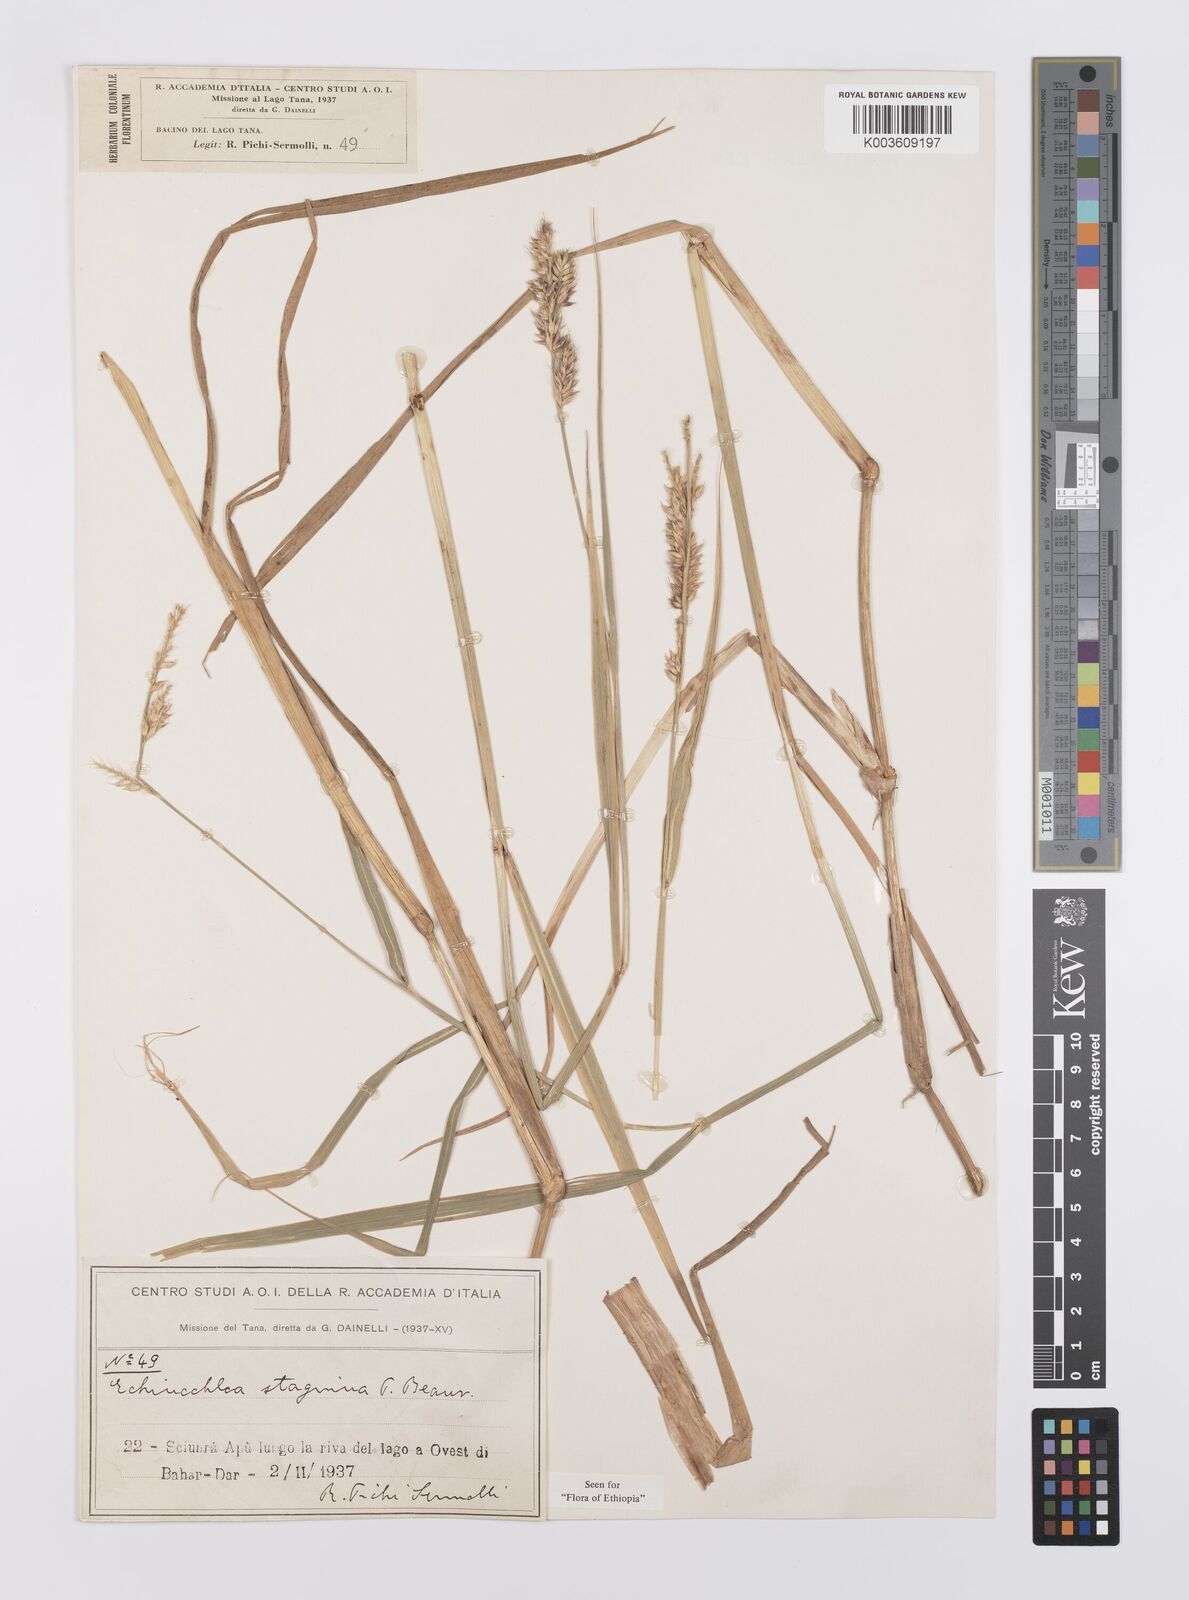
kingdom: Plantae
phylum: Tracheophyta
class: Liliopsida
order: Poales
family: Poaceae
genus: Echinochloa
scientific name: Echinochloa stagnina
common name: Burgu grass
